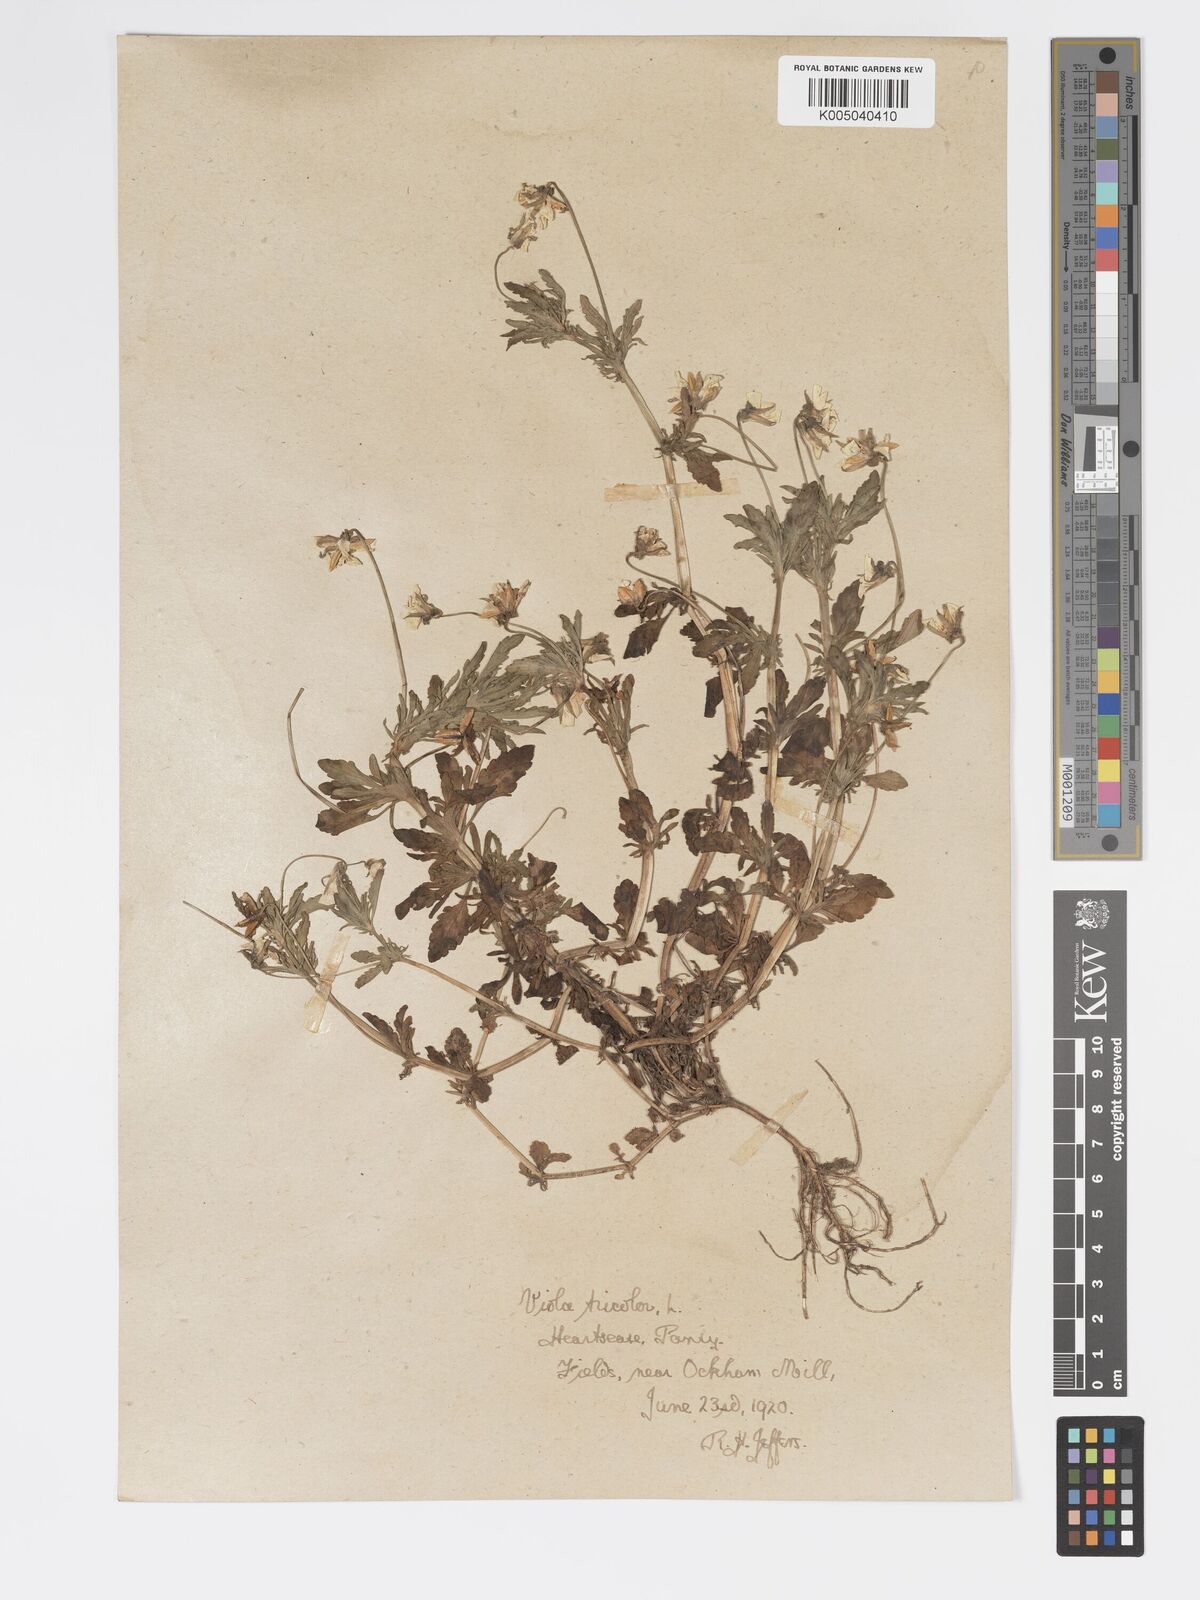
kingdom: Plantae
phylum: Tracheophyta
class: Magnoliopsida
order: Malpighiales
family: Violaceae
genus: Viola
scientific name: Viola arvensis
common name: Field pansy
